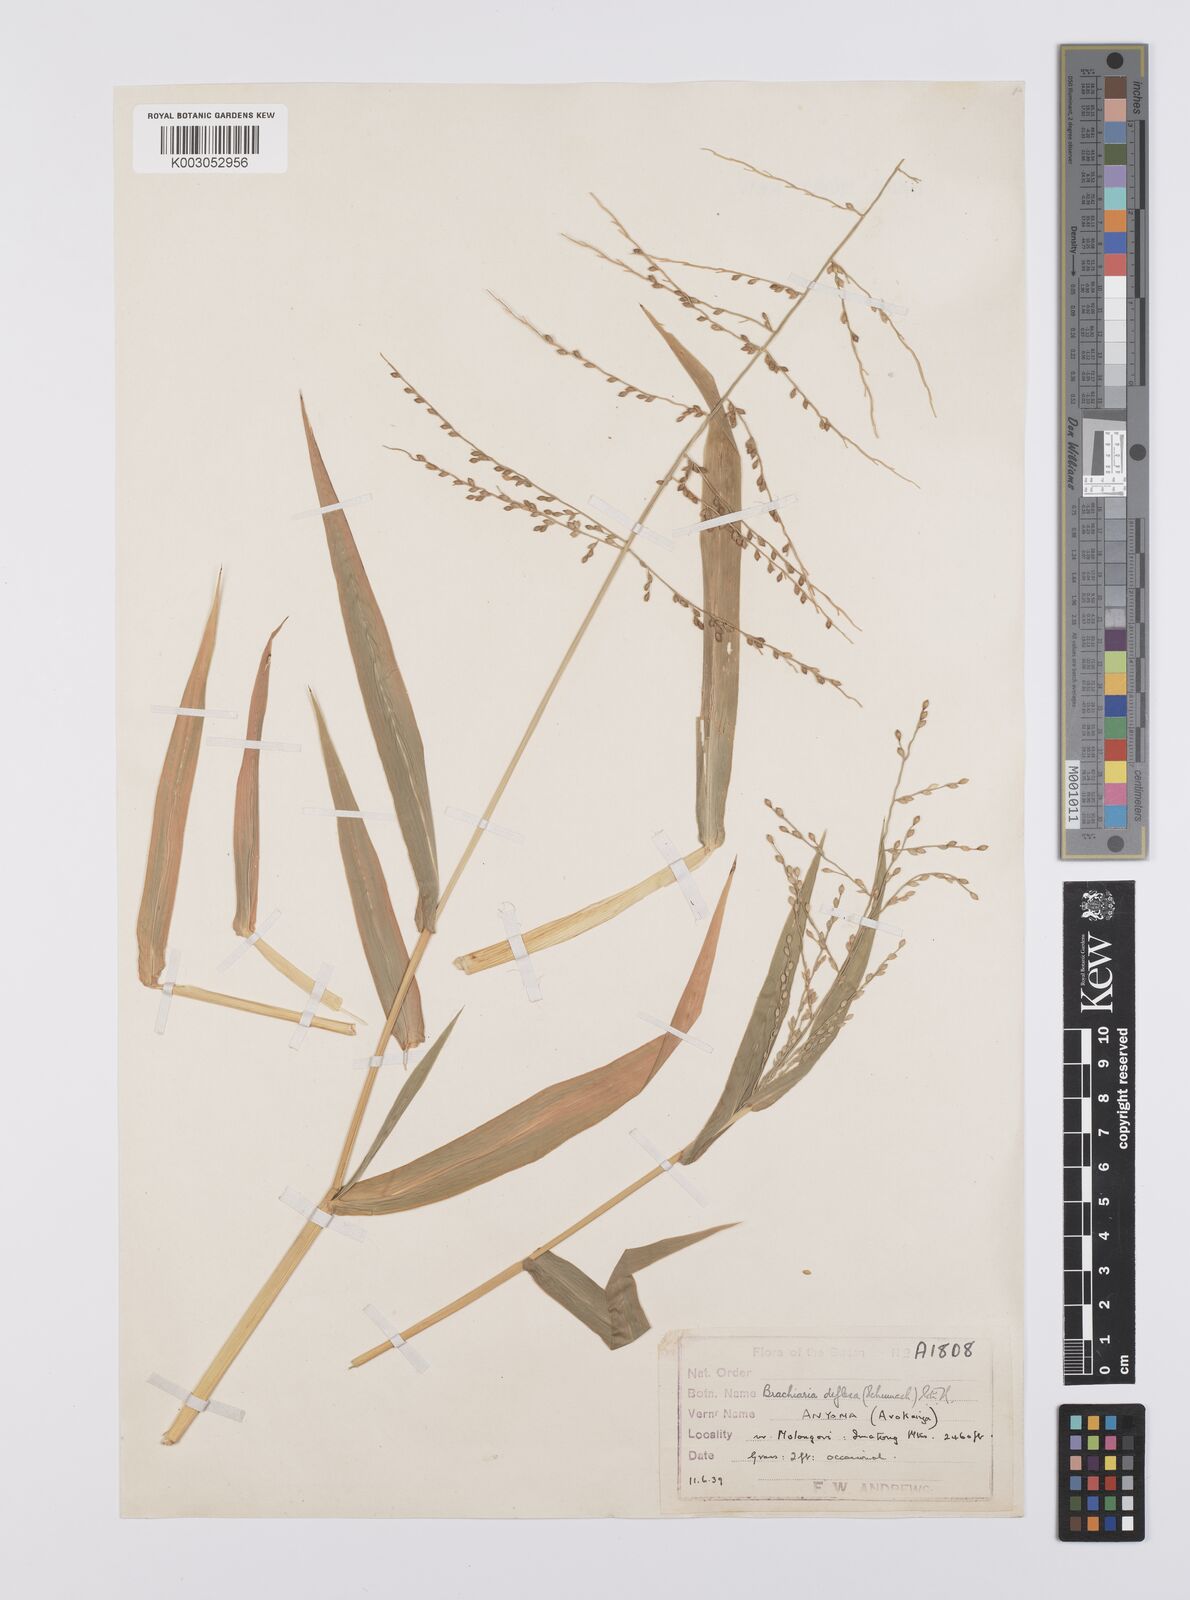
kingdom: Plantae
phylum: Tracheophyta
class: Liliopsida
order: Poales
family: Poaceae
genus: Urochloa
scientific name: Urochloa deflexa
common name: Guinea millet
